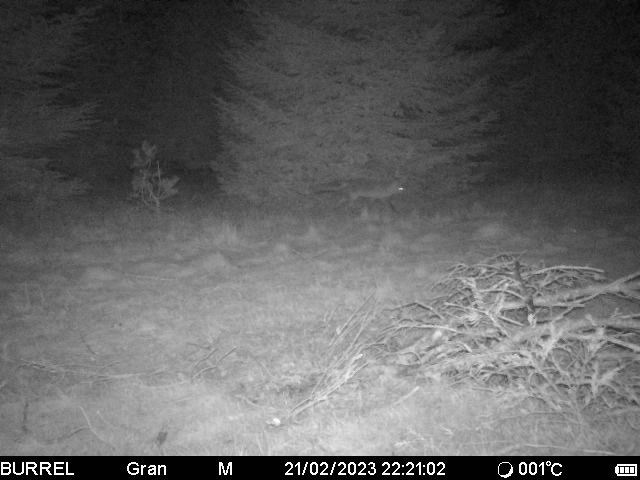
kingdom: Animalia
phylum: Chordata
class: Mammalia
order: Carnivora
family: Canidae
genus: Vulpes
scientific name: Vulpes vulpes
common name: Ræv
